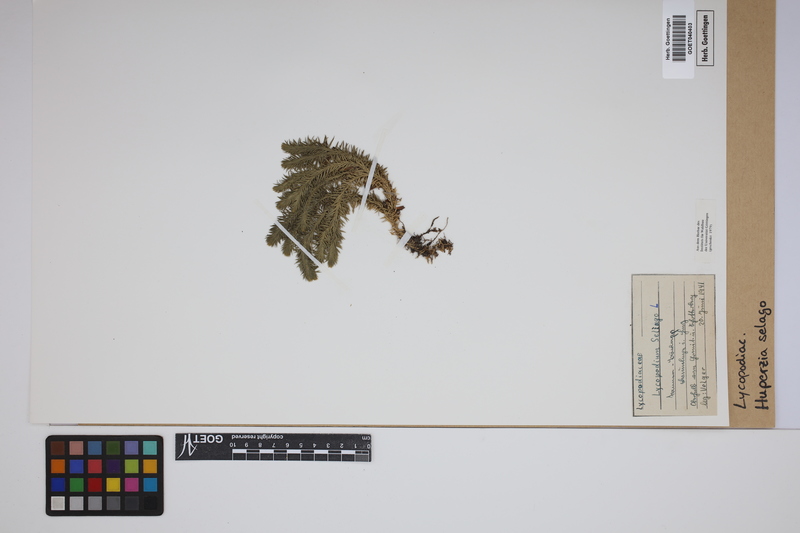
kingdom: Plantae
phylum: Tracheophyta
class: Lycopodiopsida
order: Lycopodiales
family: Lycopodiaceae
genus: Huperzia
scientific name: Huperzia selago
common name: Northern firmoss
